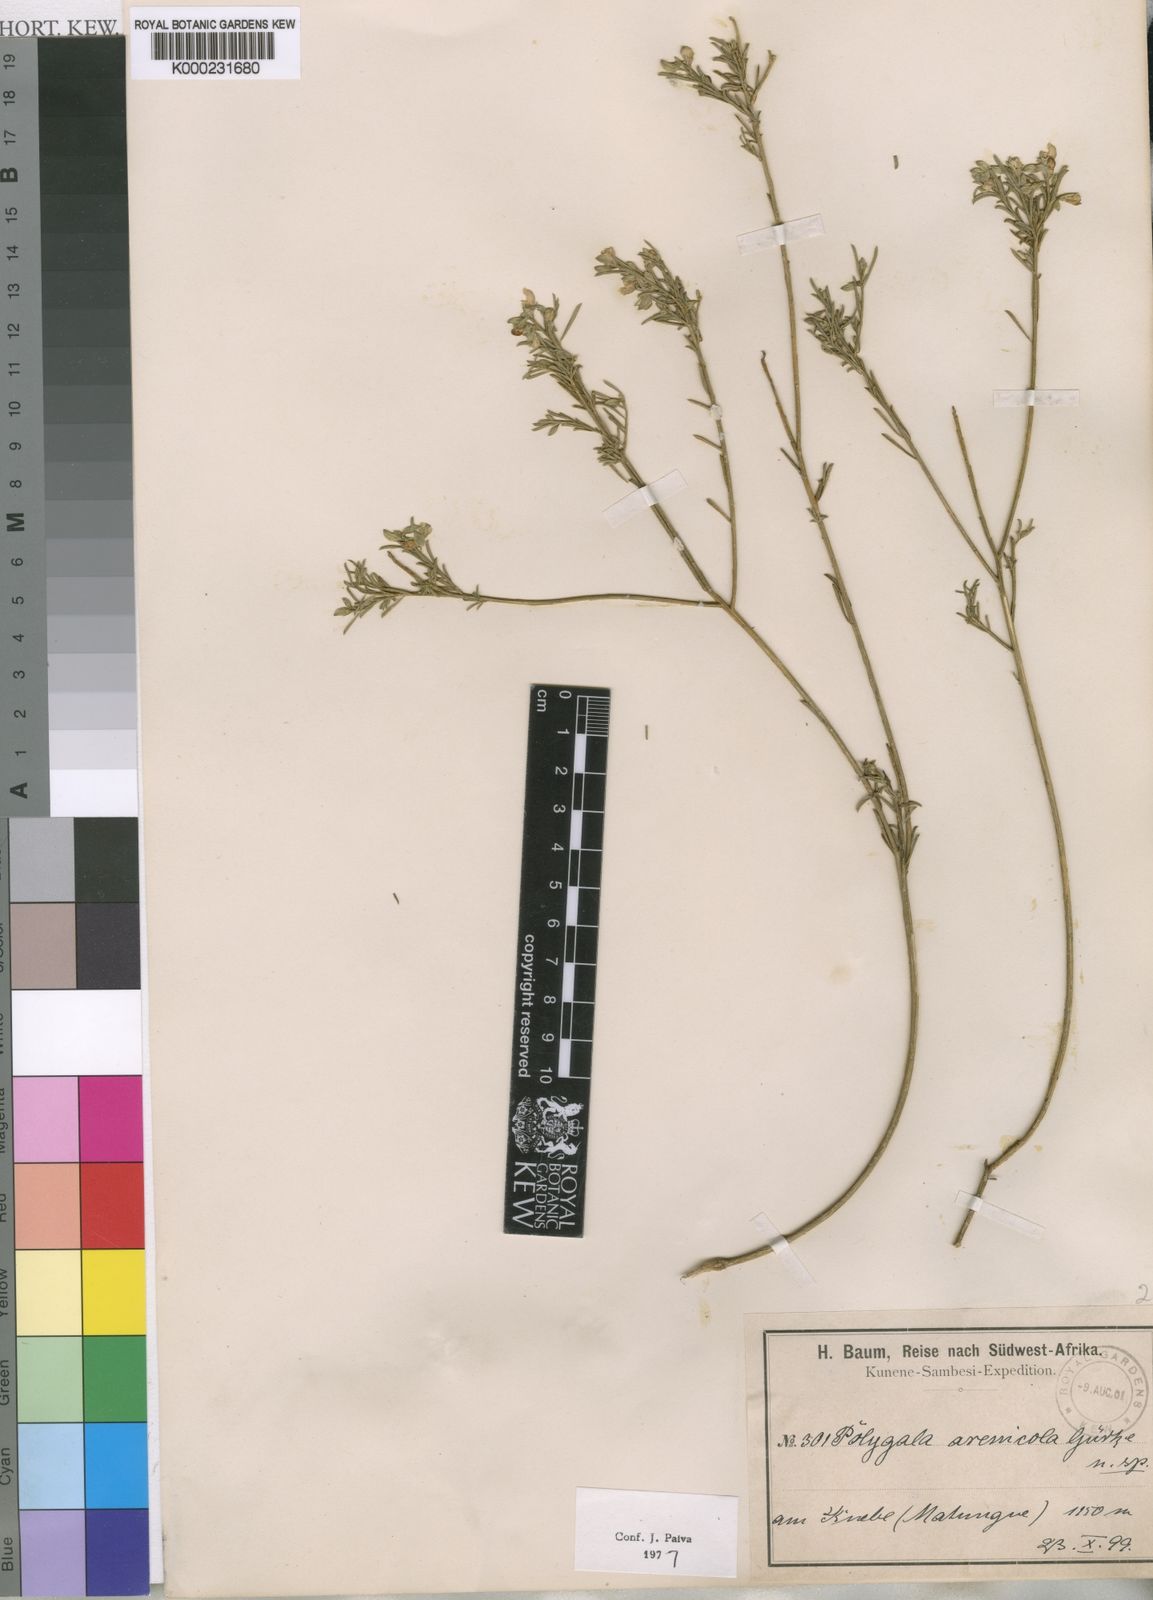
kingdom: Plantae
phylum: Tracheophyta
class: Magnoliopsida
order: Fabales
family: Polygalaceae
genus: Polygala
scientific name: Polygala
